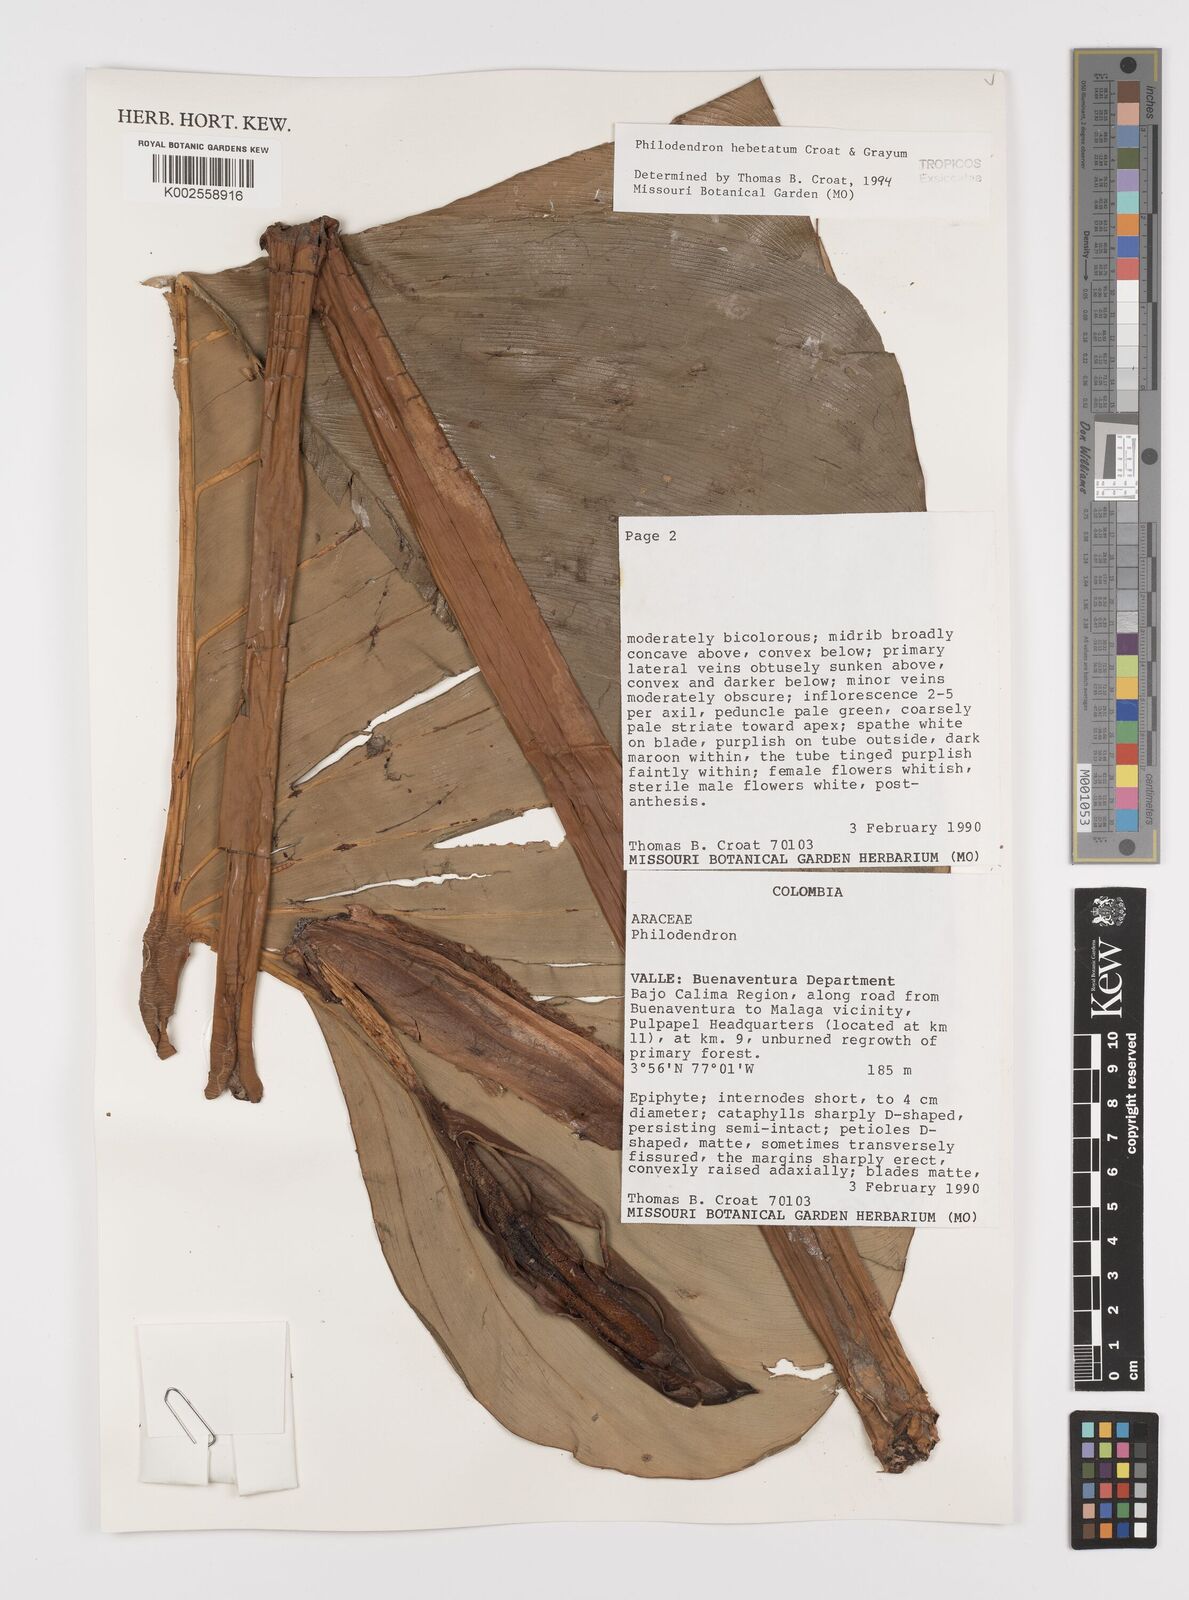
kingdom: Plantae
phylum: Tracheophyta
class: Liliopsida
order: Alismatales
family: Araceae
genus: Philodendron
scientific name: Philodendron hebetatum
